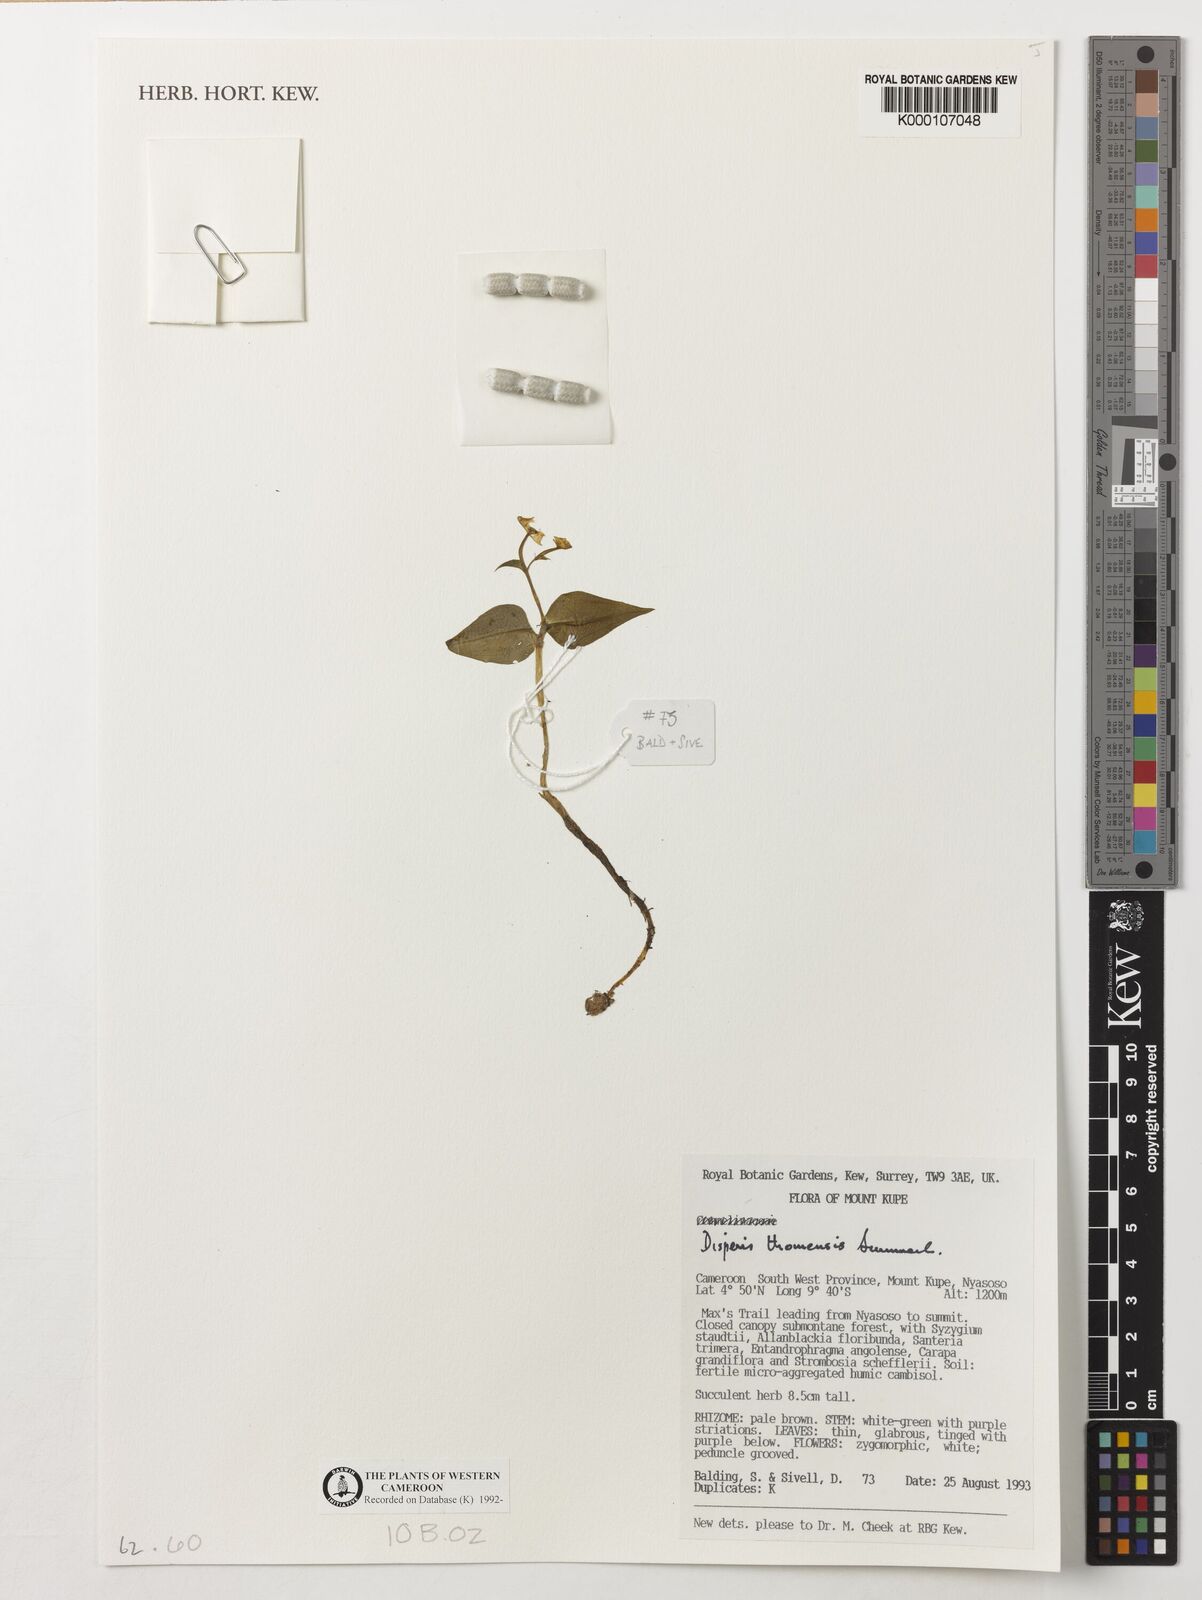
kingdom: Plantae
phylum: Tracheophyta
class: Liliopsida
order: Asparagales
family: Orchidaceae
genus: Disperis
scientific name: Disperis thomensis
